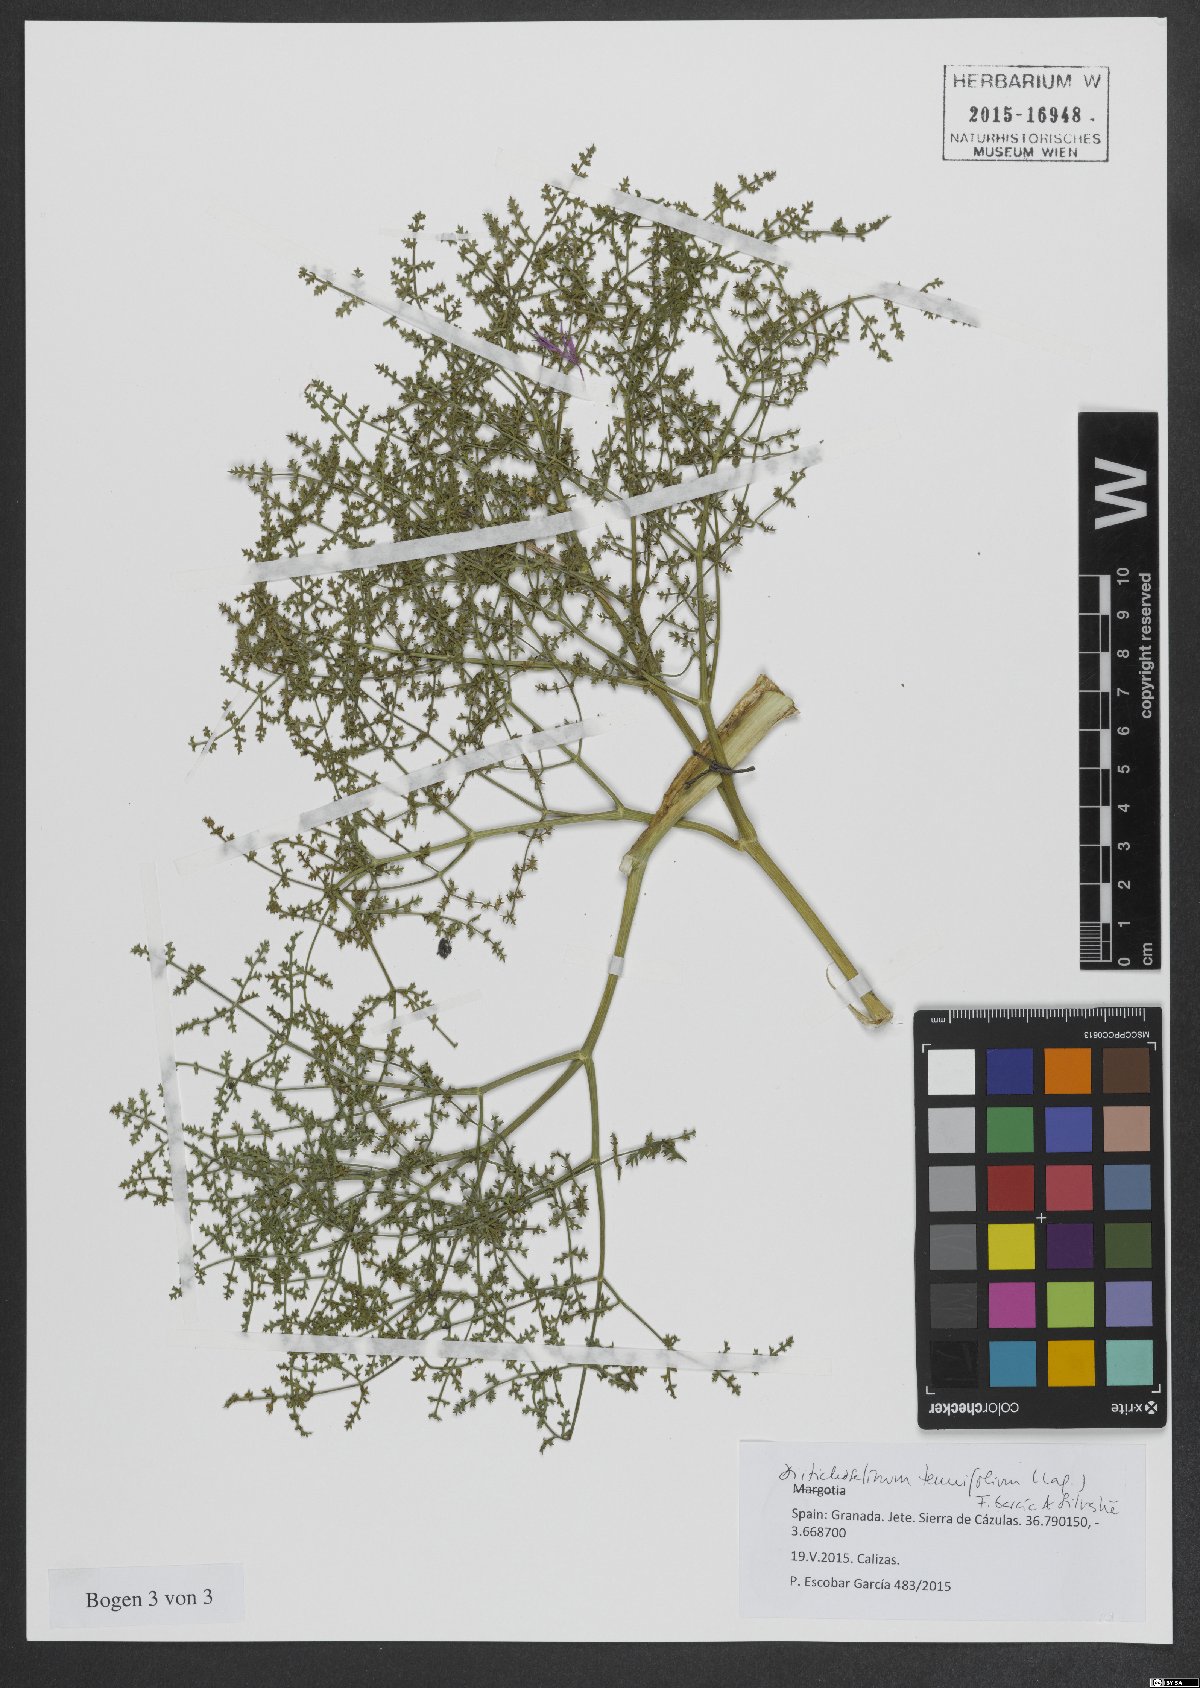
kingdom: Plantae
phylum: Tracheophyta
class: Magnoliopsida
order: Apiales
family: Apiaceae
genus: Thapsia
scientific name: Thapsia tenuifolia
